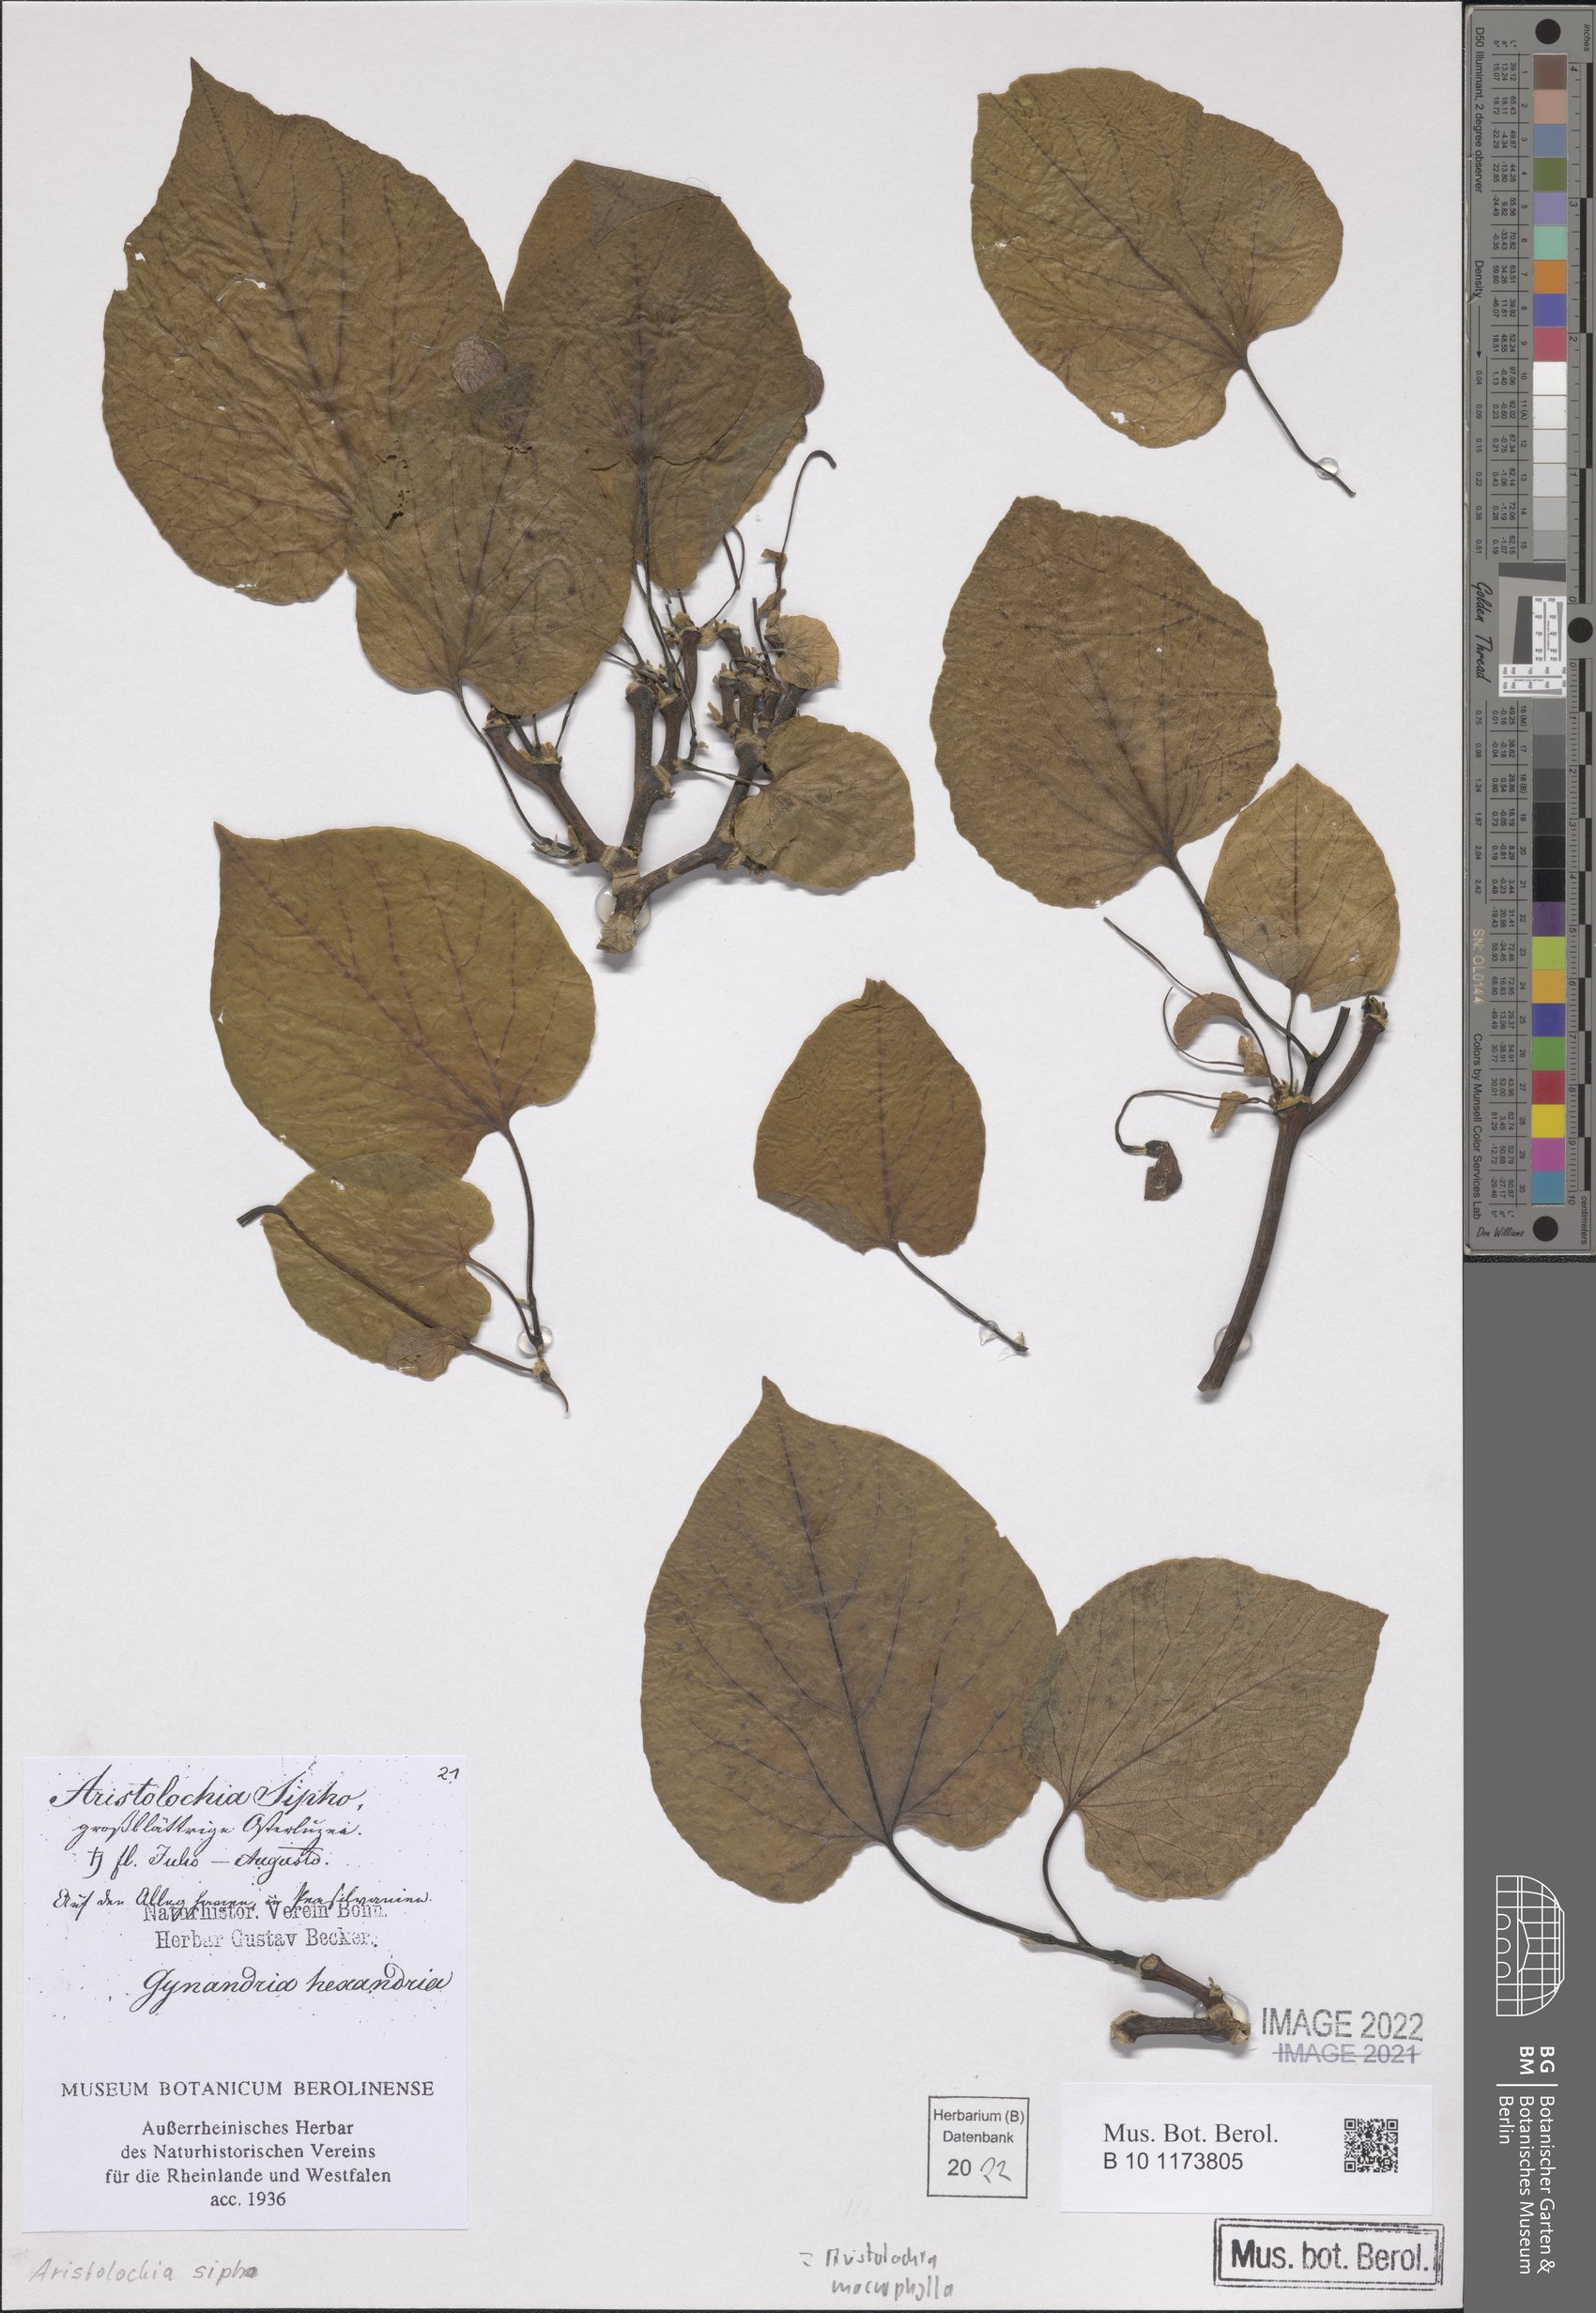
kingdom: Plantae
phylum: Tracheophyta
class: Magnoliopsida
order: Piperales
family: Aristolochiaceae
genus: Isotrema
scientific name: Isotrema macrophyllum
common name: Dutchman's-pipe
